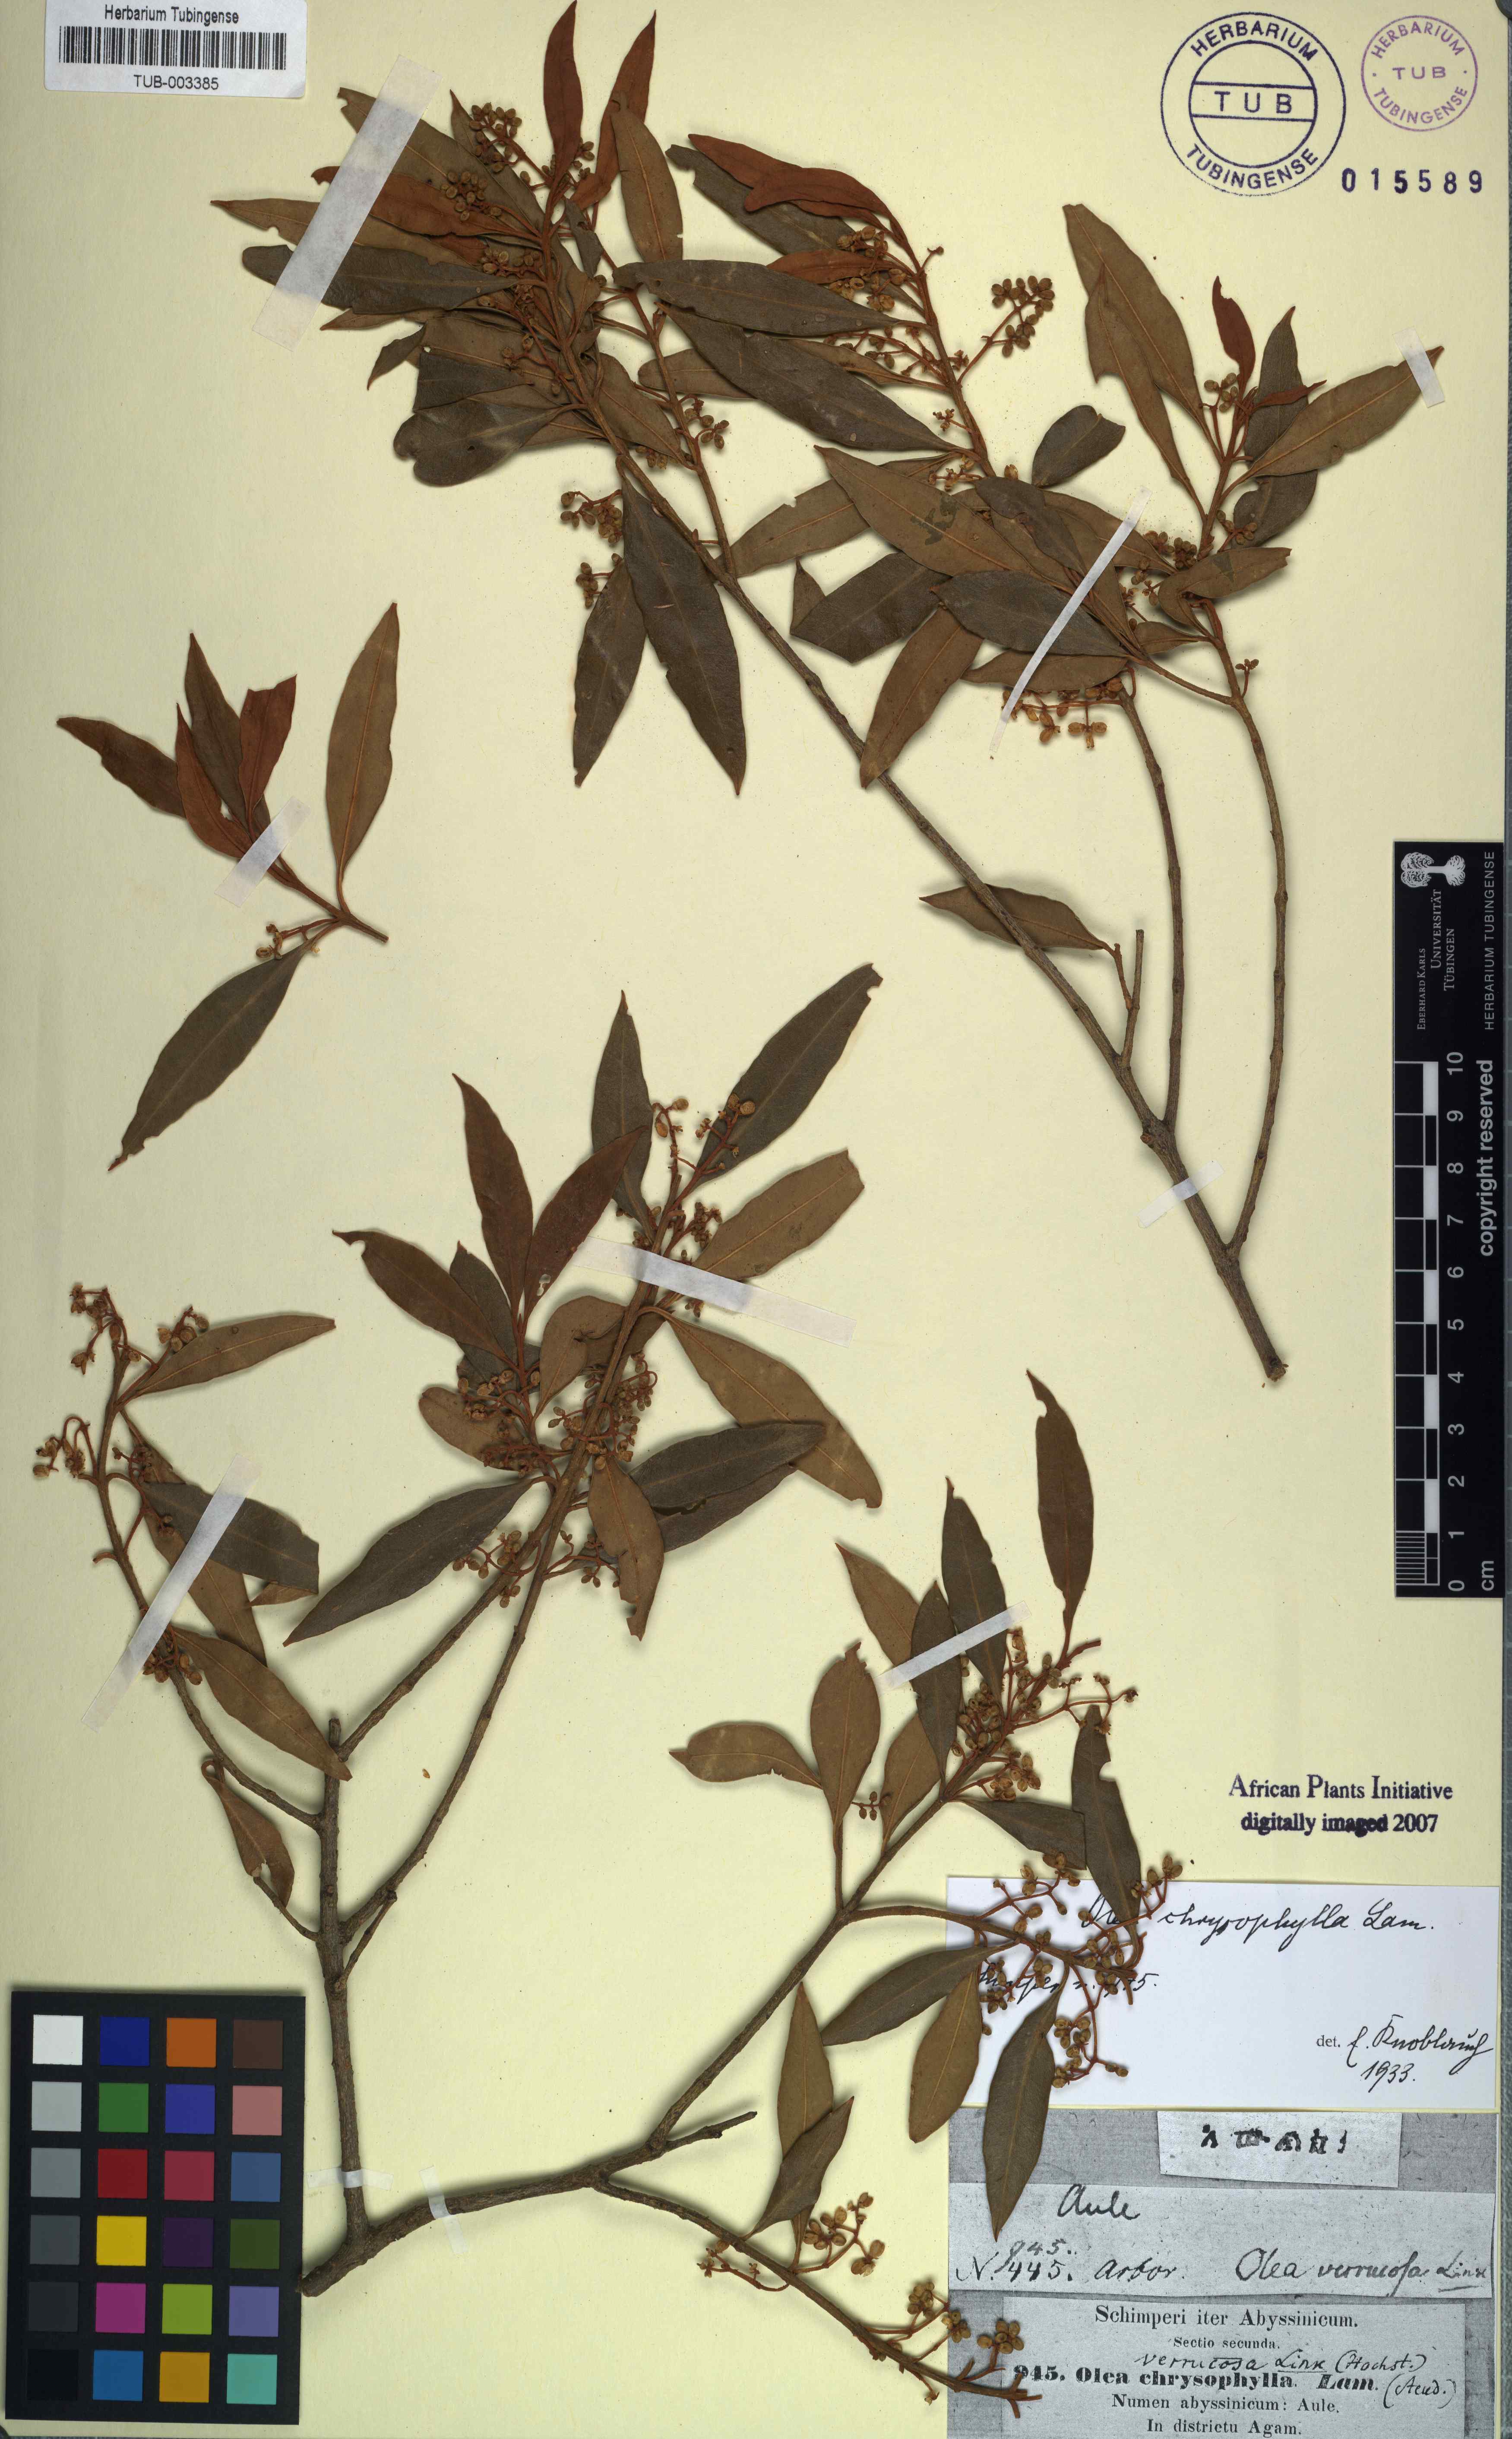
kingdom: Plantae
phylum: Tracheophyta
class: Magnoliopsida
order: Lamiales
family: Oleaceae
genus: Olea
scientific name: Olea europaea
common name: Olive
